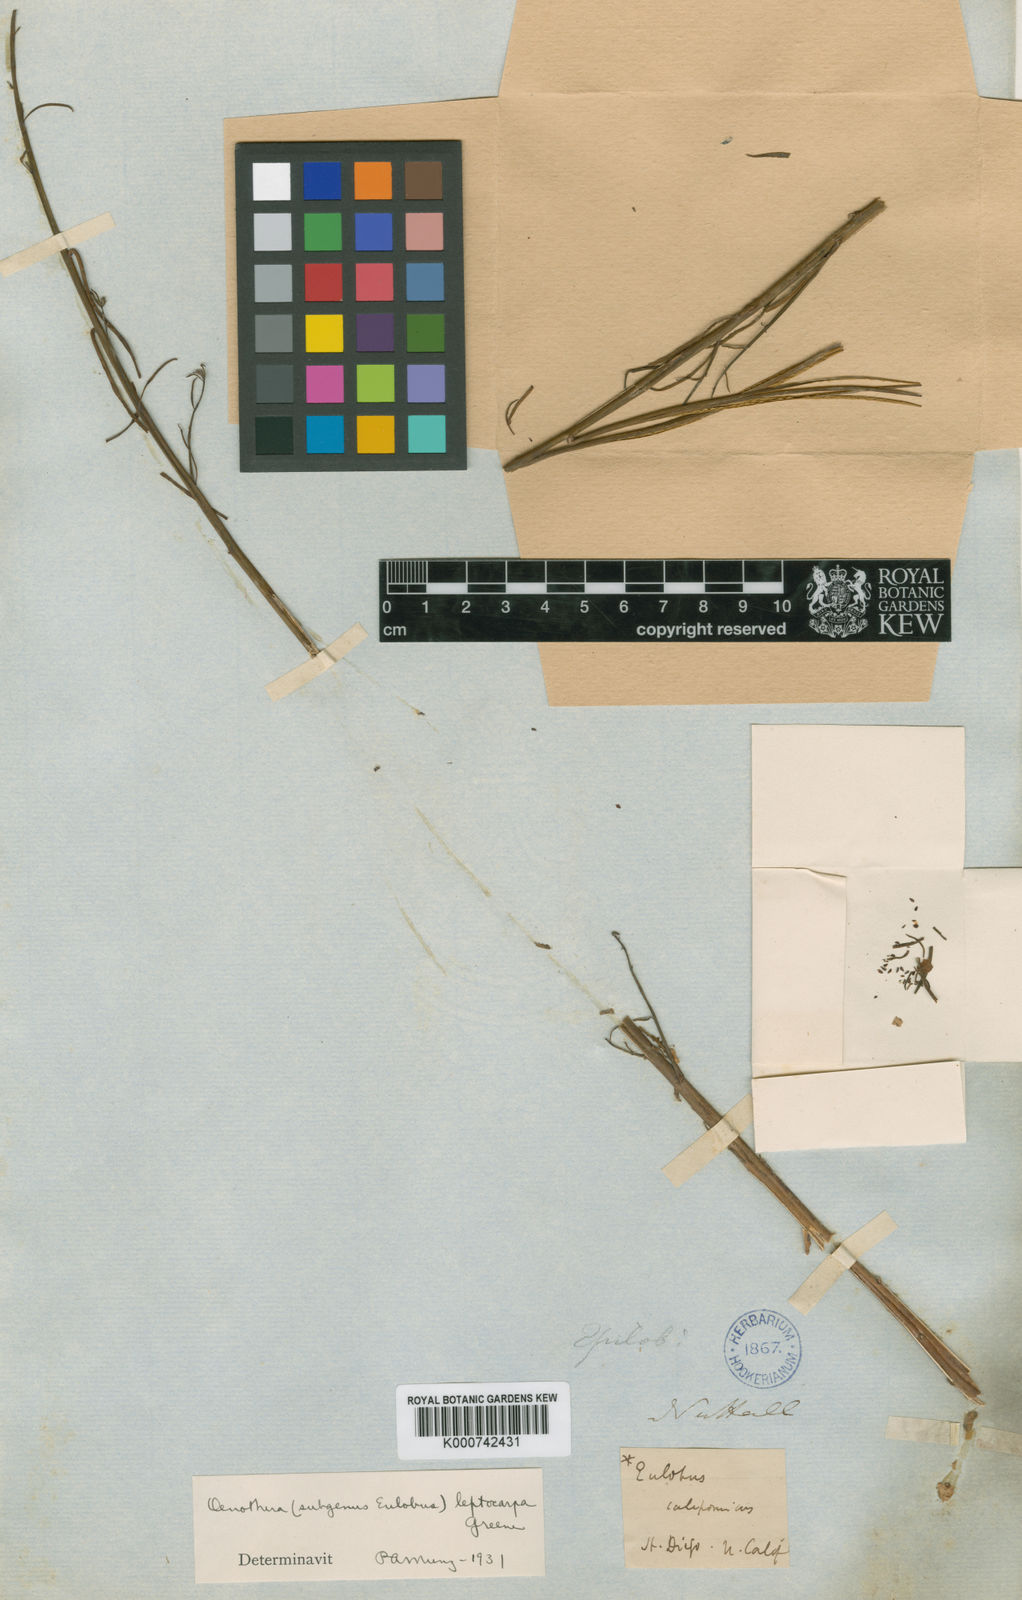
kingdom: Plantae
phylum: Tracheophyta
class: Magnoliopsida
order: Myrtales
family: Onagraceae
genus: Eulobus
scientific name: Eulobus californicus
